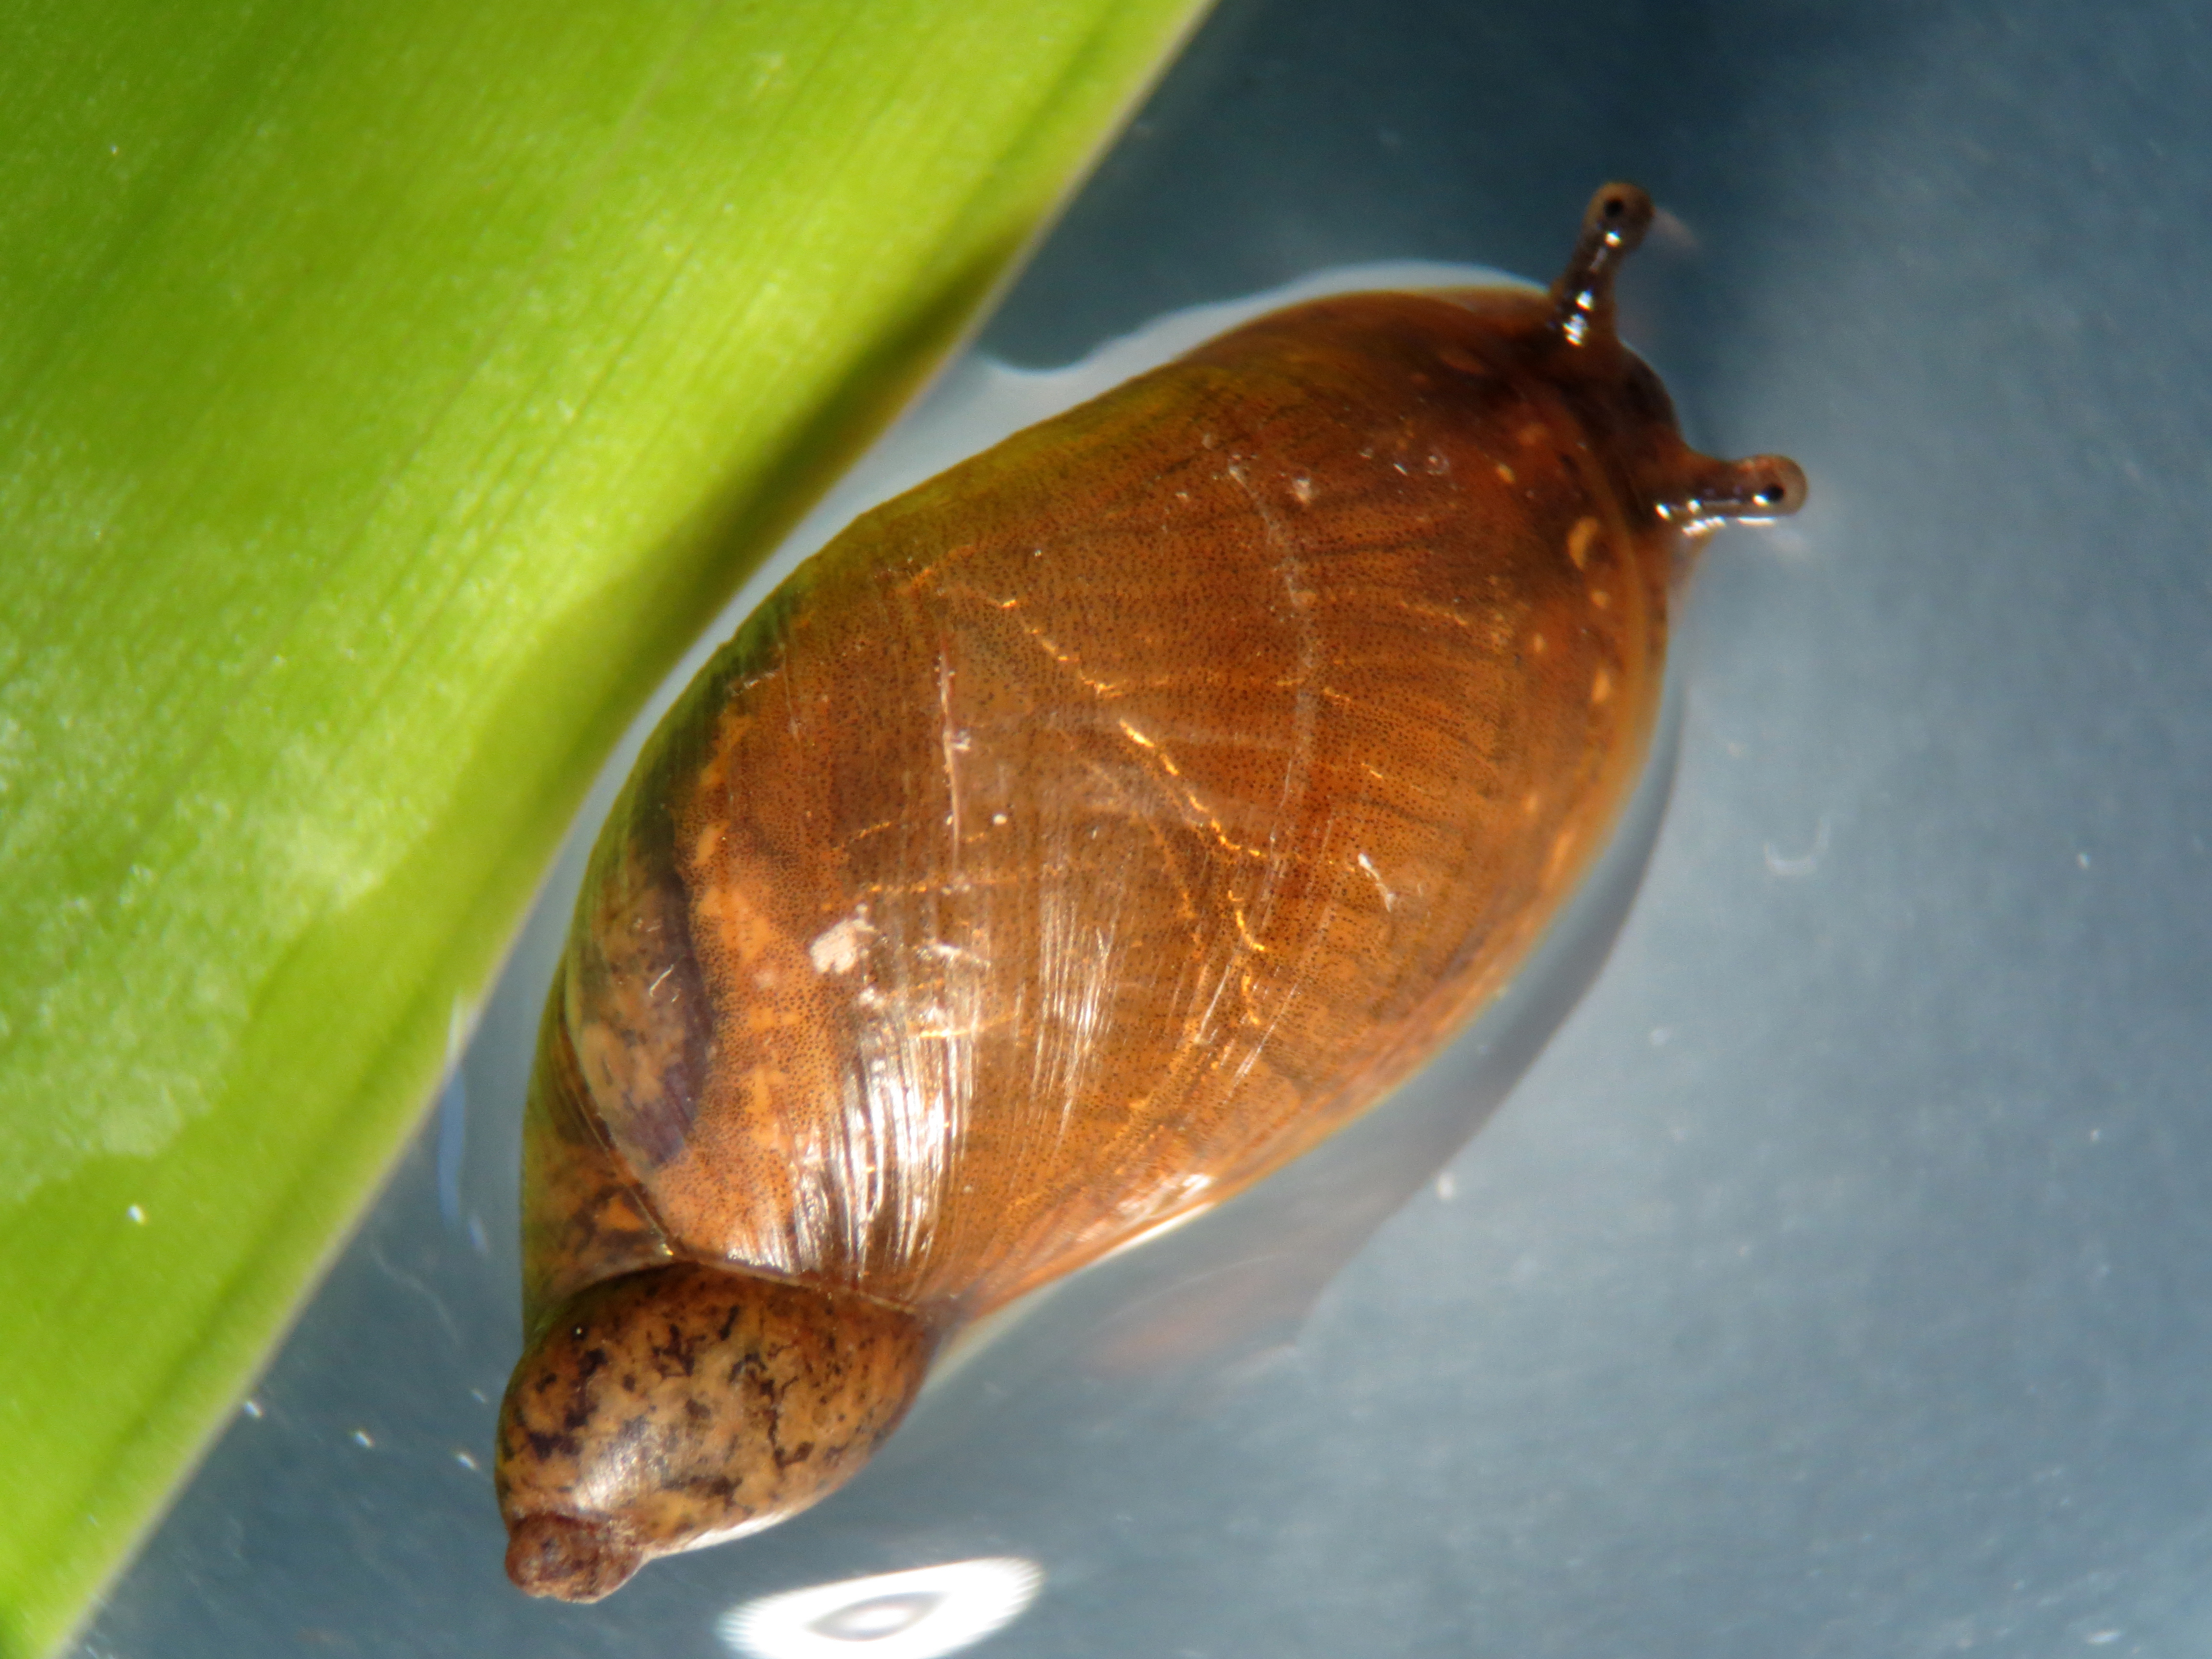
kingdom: Animalia
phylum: Mollusca
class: Gastropoda
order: Stylommatophora
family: Succineidae
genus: Succinea
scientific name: Succinea putris
